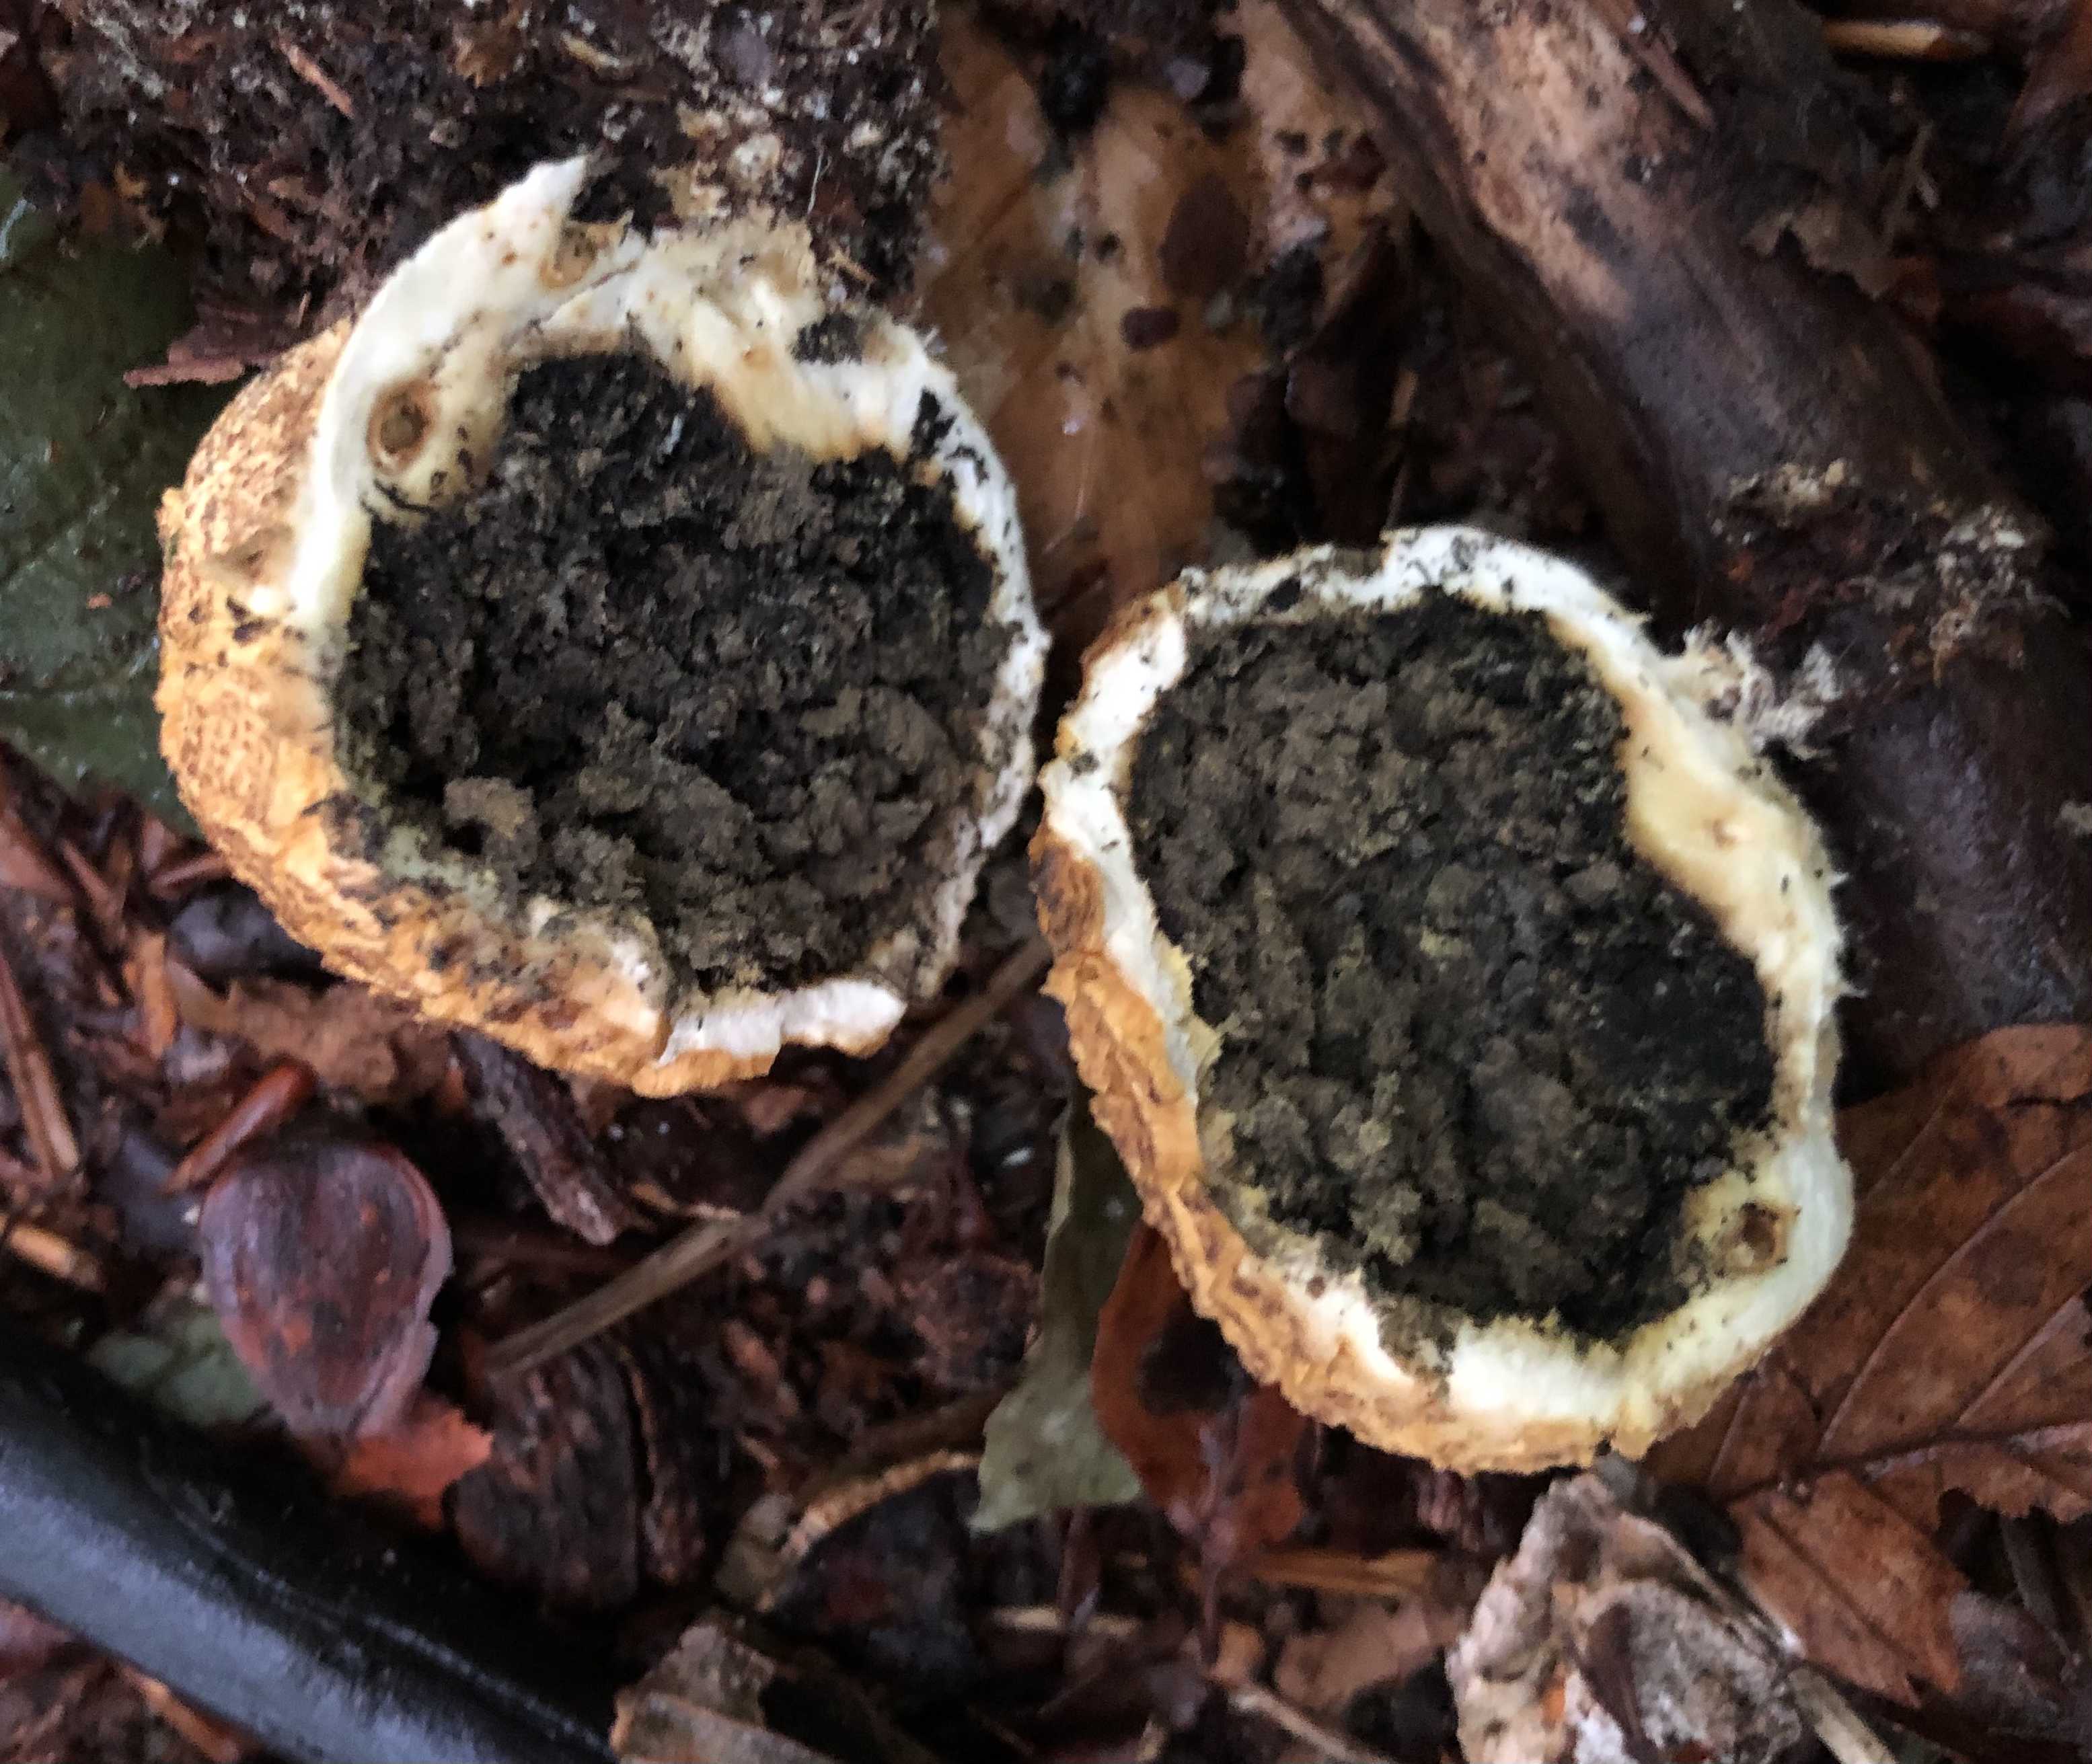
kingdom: Fungi
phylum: Basidiomycota
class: Agaricomycetes
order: Boletales
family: Sclerodermataceae
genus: Scleroderma
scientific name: Scleroderma citrinum
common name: almindelig bruskbold
